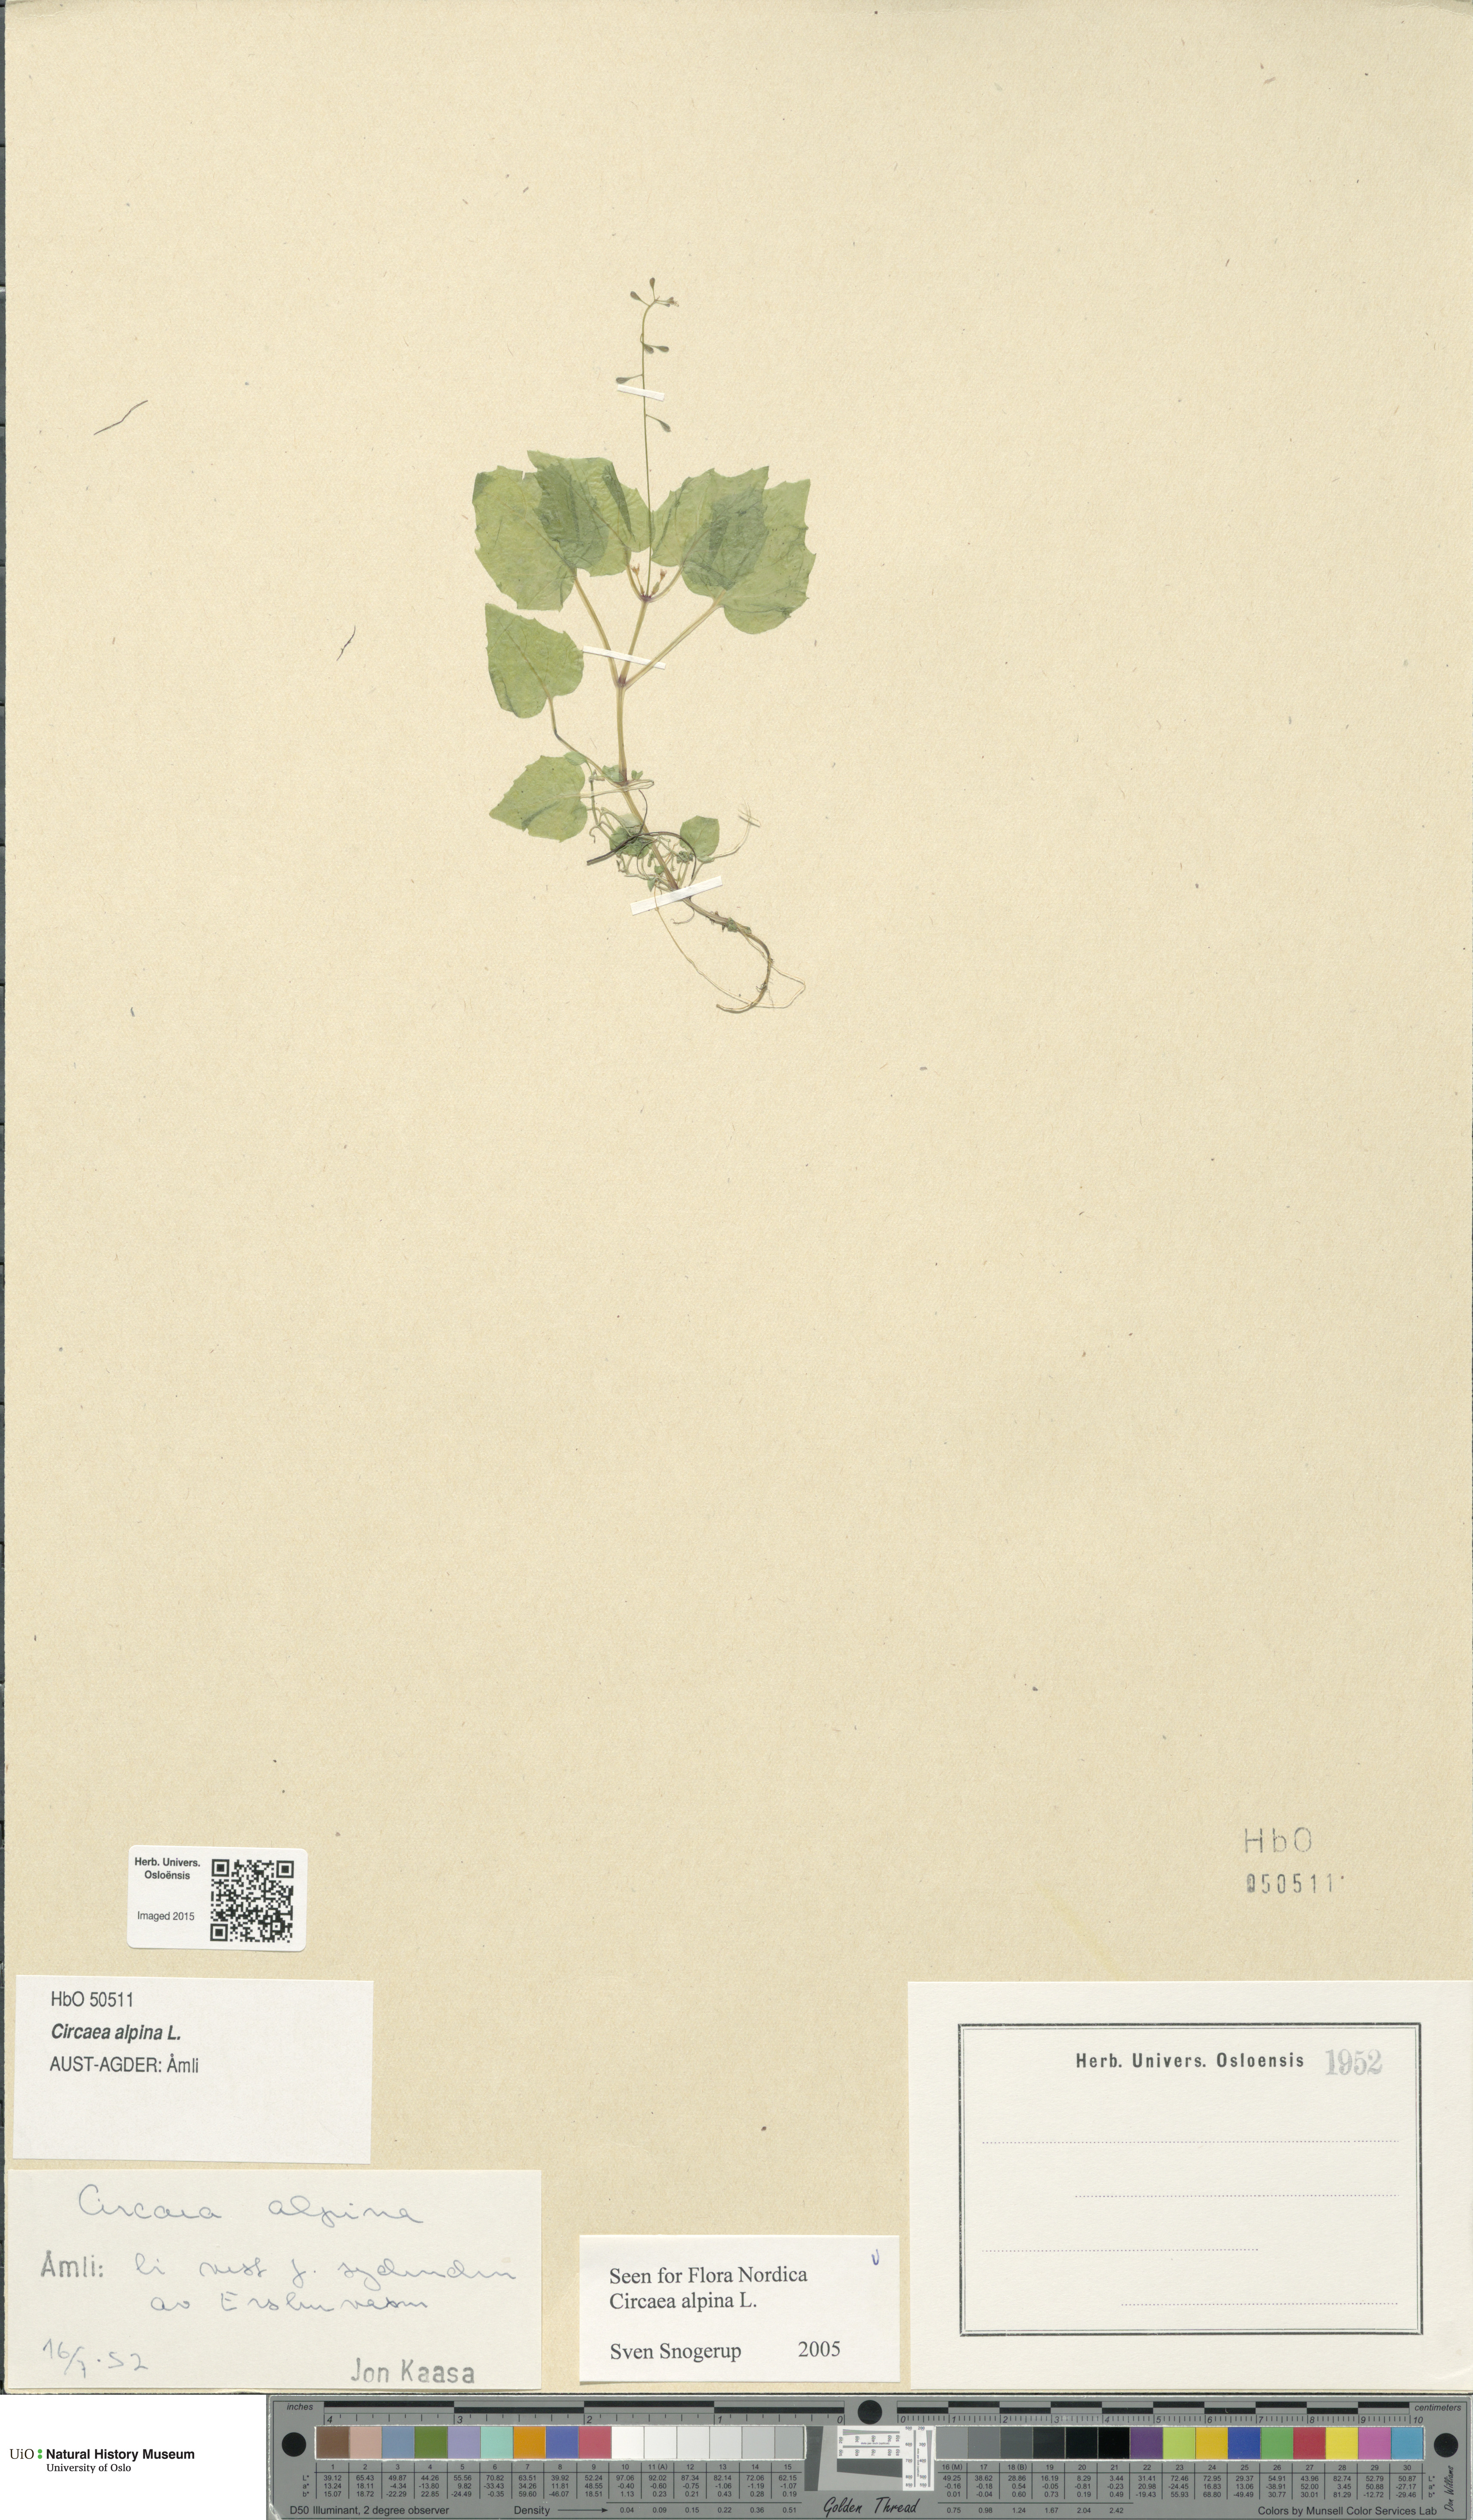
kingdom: Plantae
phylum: Tracheophyta
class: Magnoliopsida
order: Myrtales
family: Onagraceae
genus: Circaea
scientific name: Circaea alpina
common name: Alpine enchanter's-nightshade
